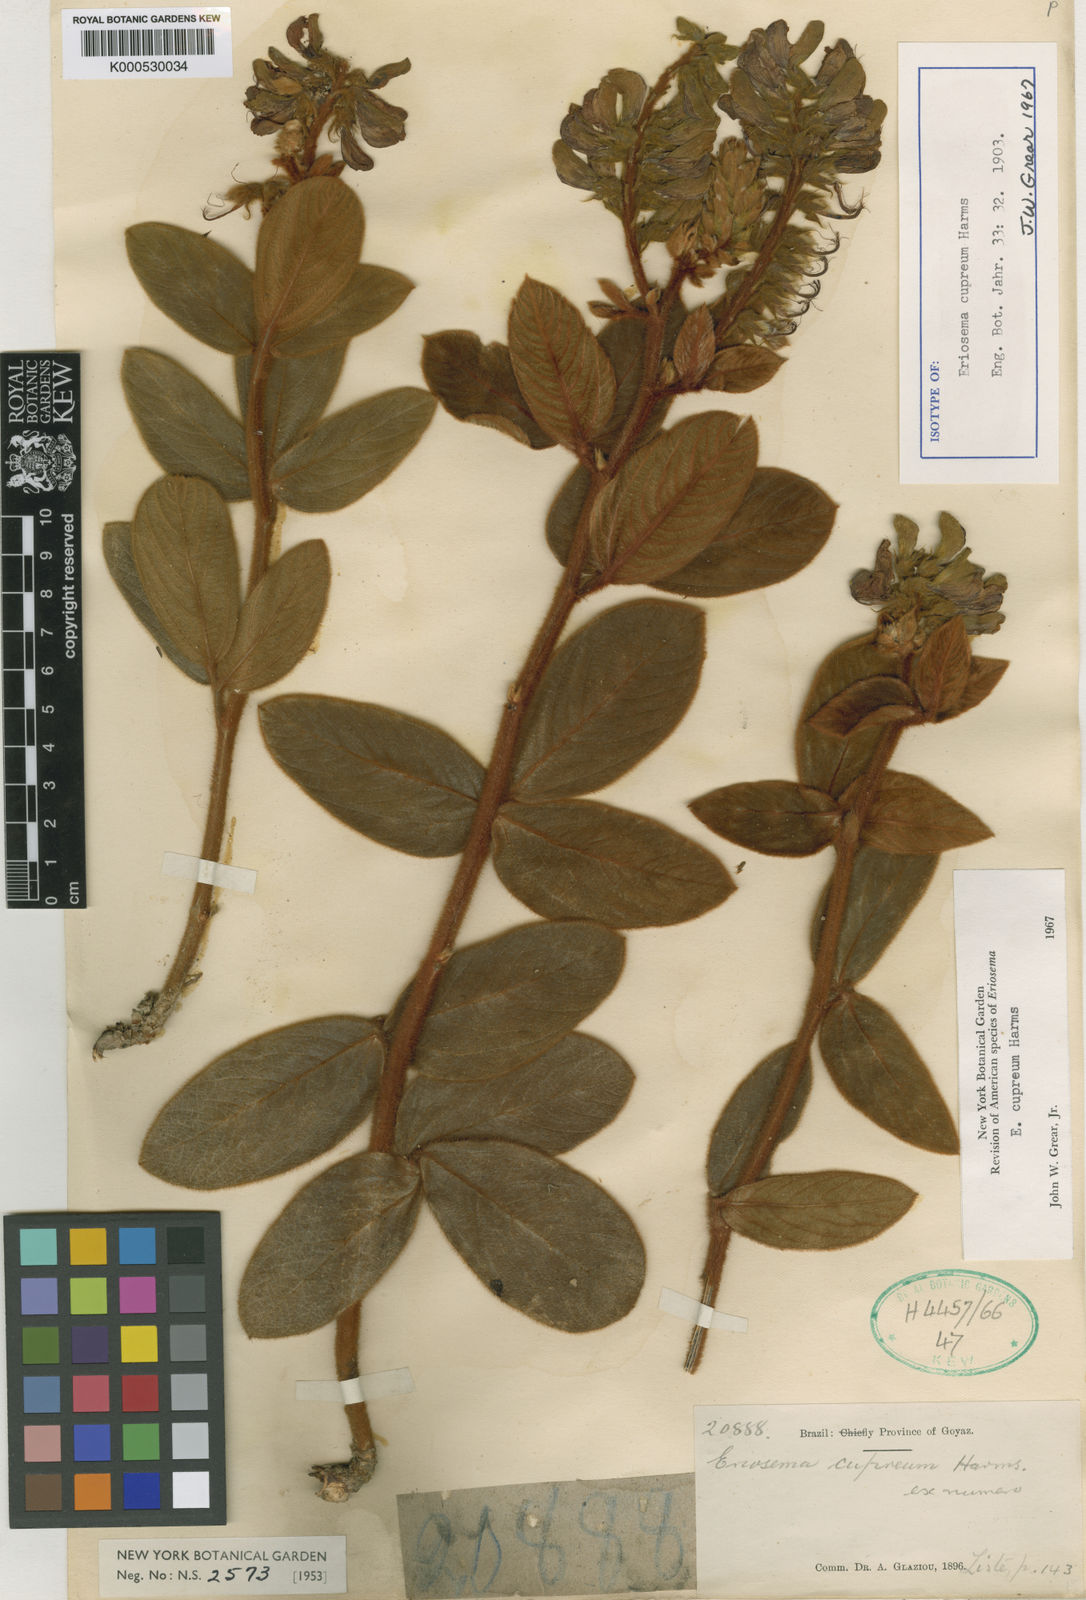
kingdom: Plantae
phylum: Tracheophyta
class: Magnoliopsida
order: Fabales
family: Fabaceae
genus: Eriosema
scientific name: Eriosema cupreum
